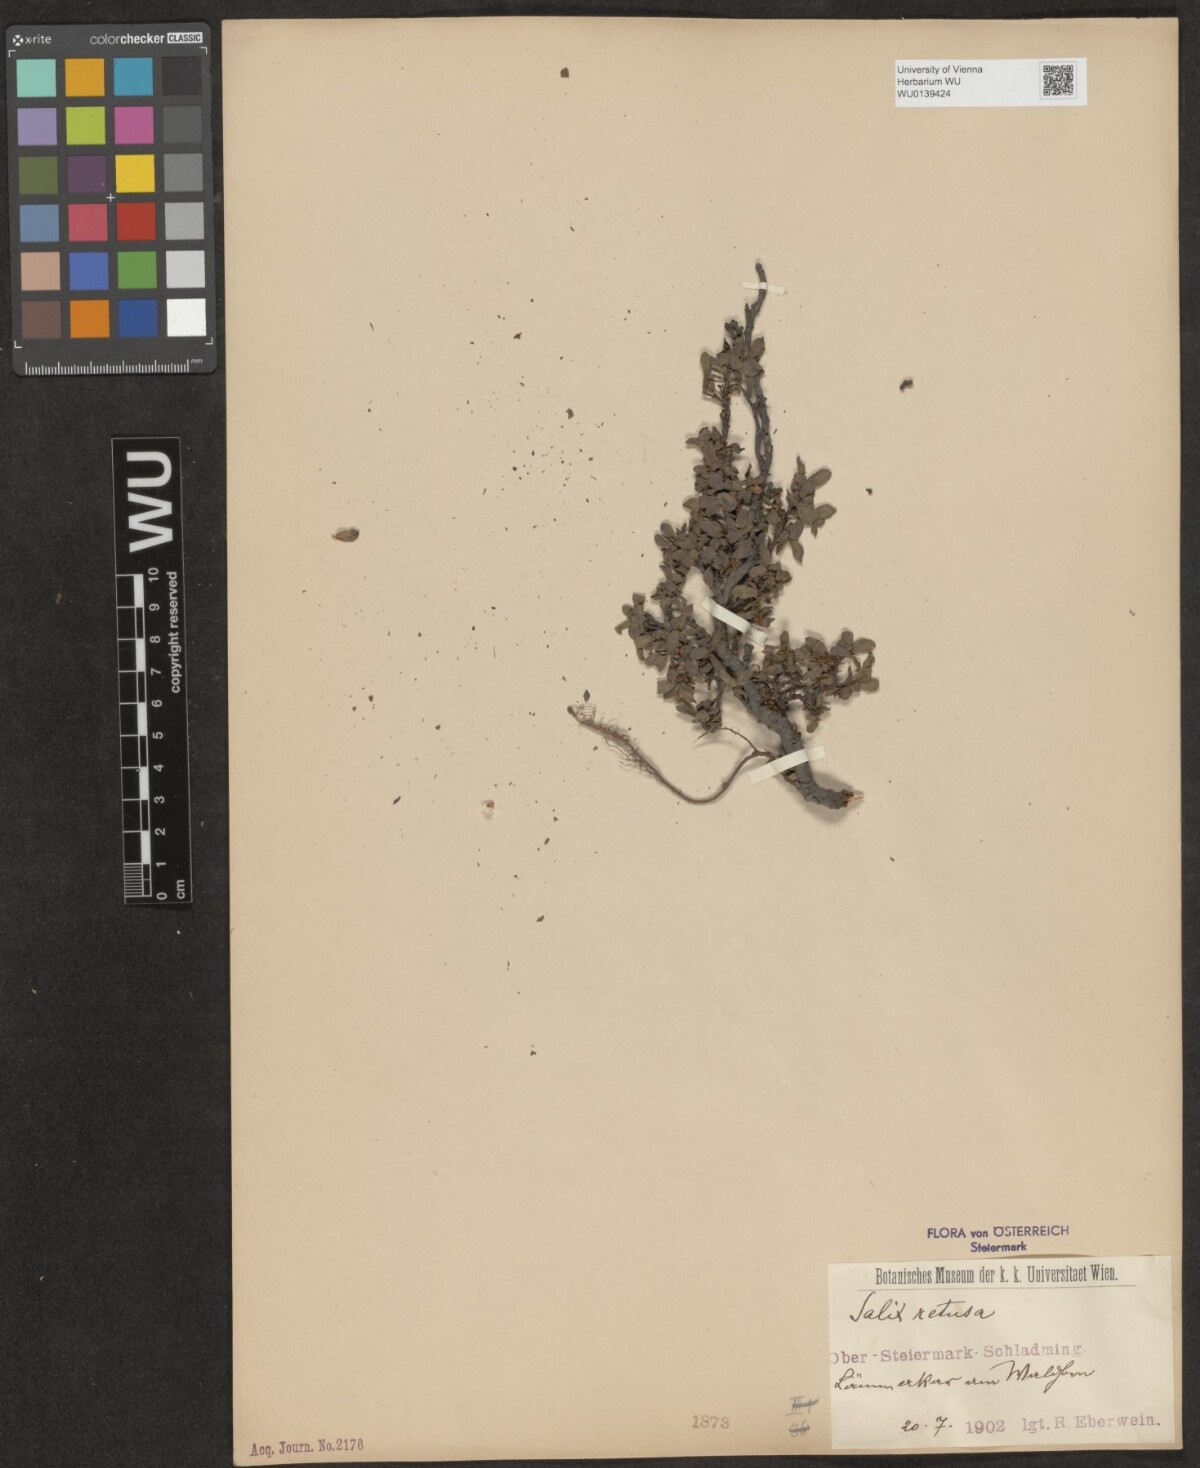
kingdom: Plantae
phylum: Tracheophyta
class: Magnoliopsida
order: Malpighiales
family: Salicaceae
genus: Salix
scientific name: Salix retusa
